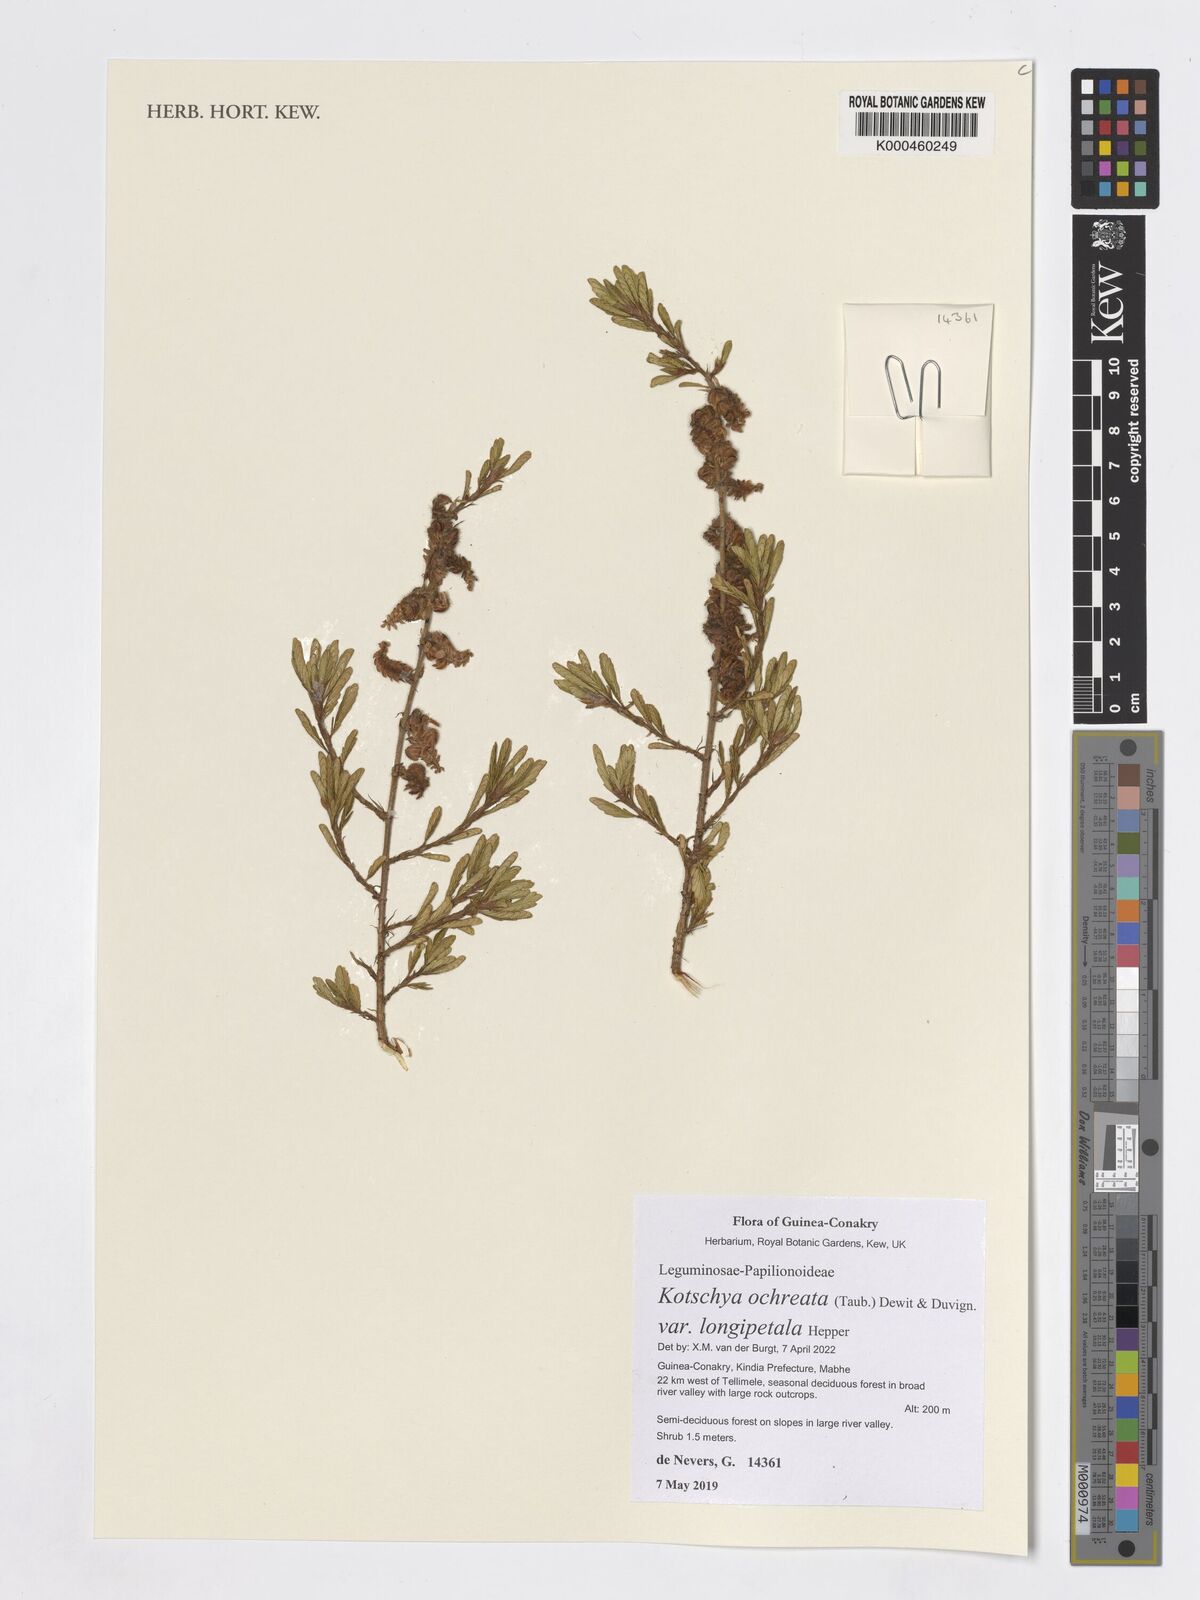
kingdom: Plantae
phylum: Tracheophyta
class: Magnoliopsida
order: Fabales
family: Fabaceae
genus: Kotschya
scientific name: Kotschya ochreata
